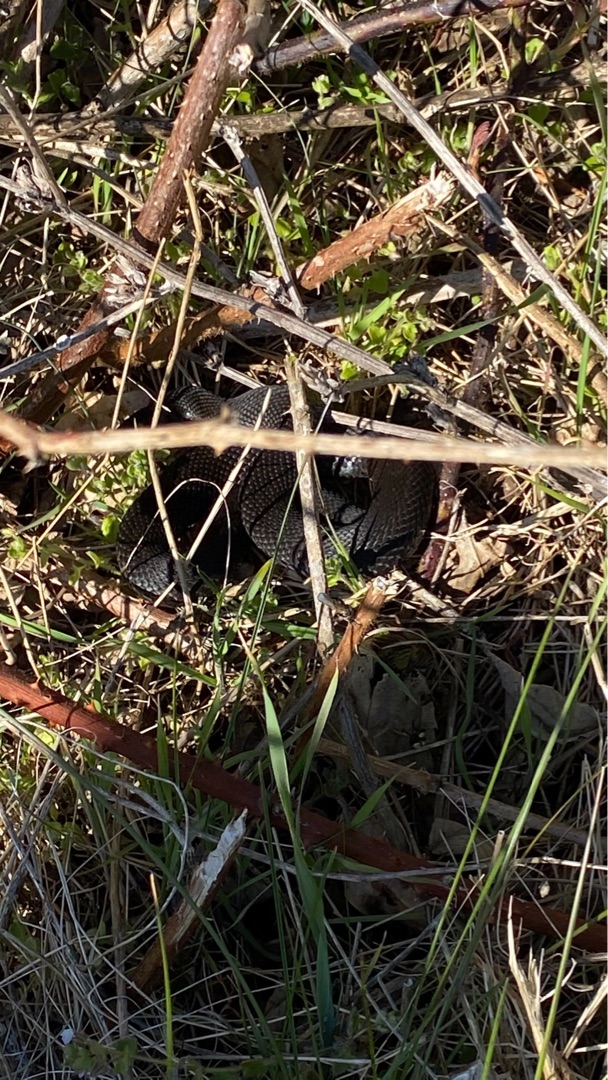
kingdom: Animalia
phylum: Chordata
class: Squamata
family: Viperidae
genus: Vipera
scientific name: Vipera berus
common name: Hugorm
